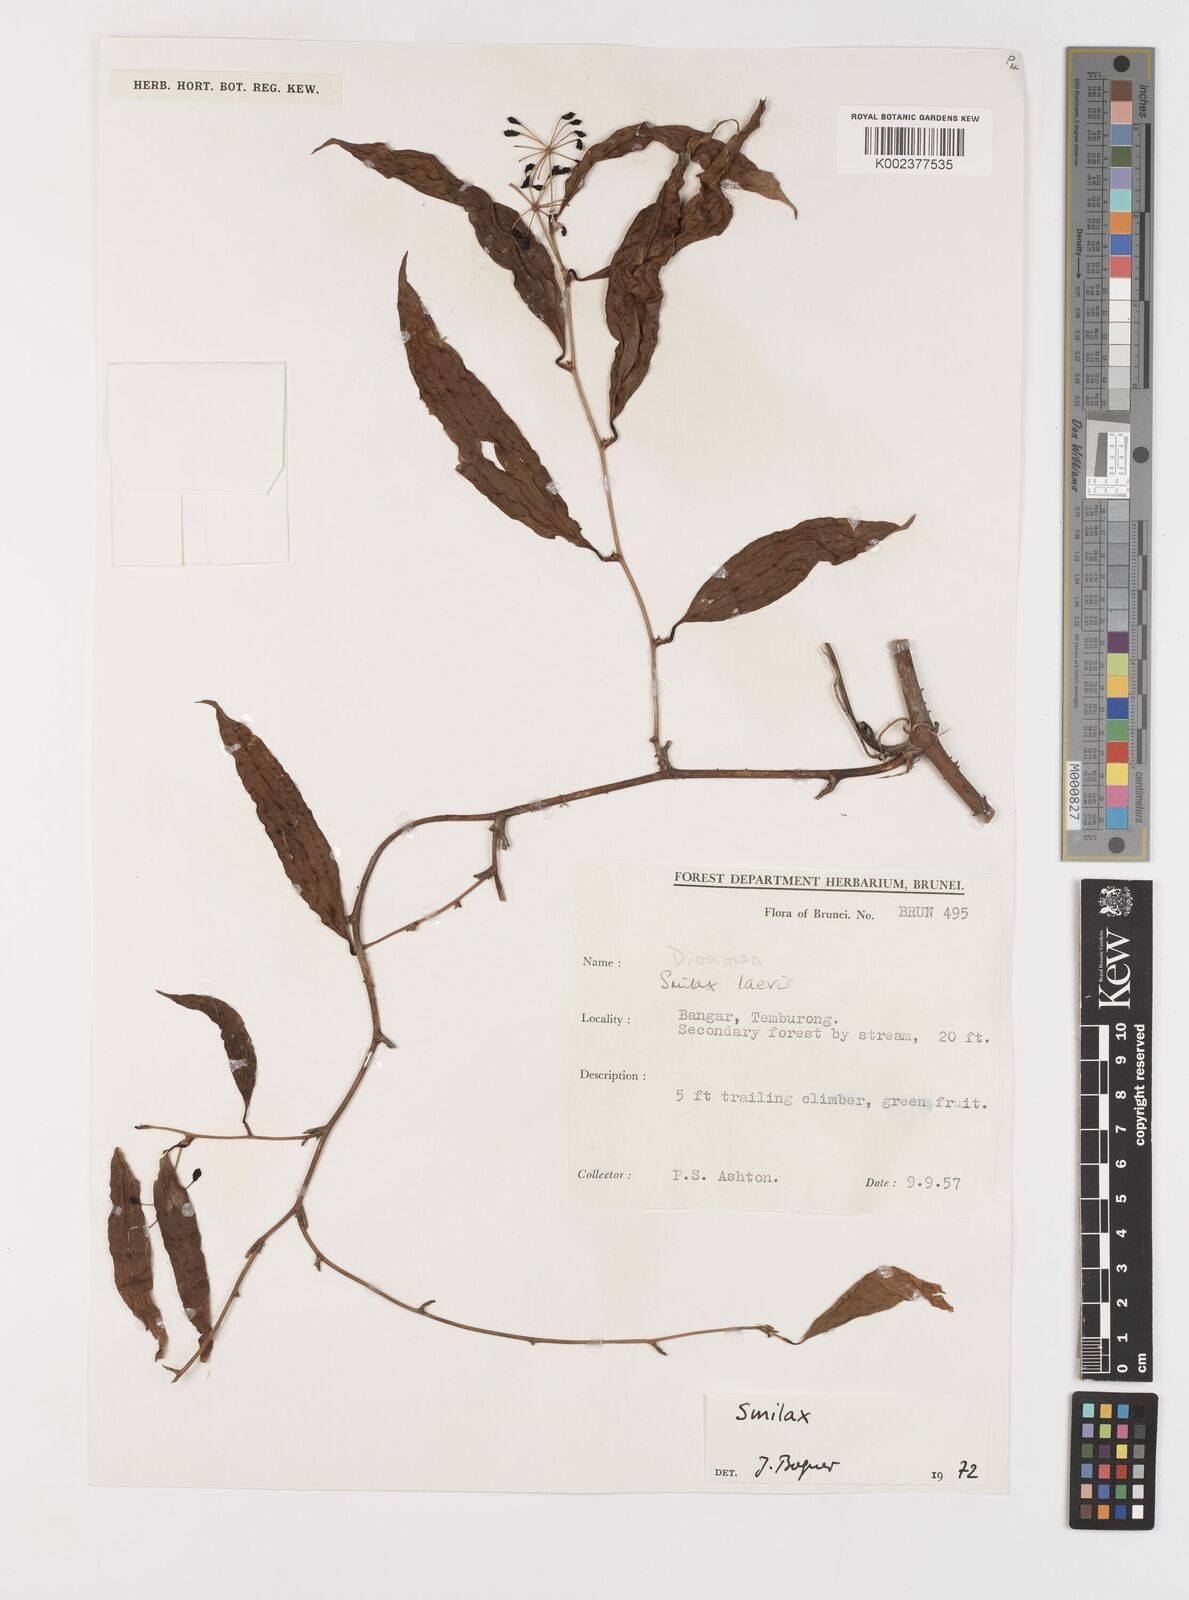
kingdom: Plantae
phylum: Tracheophyta
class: Liliopsida
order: Liliales
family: Smilacaceae
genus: Smilax
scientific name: Smilax laevis
